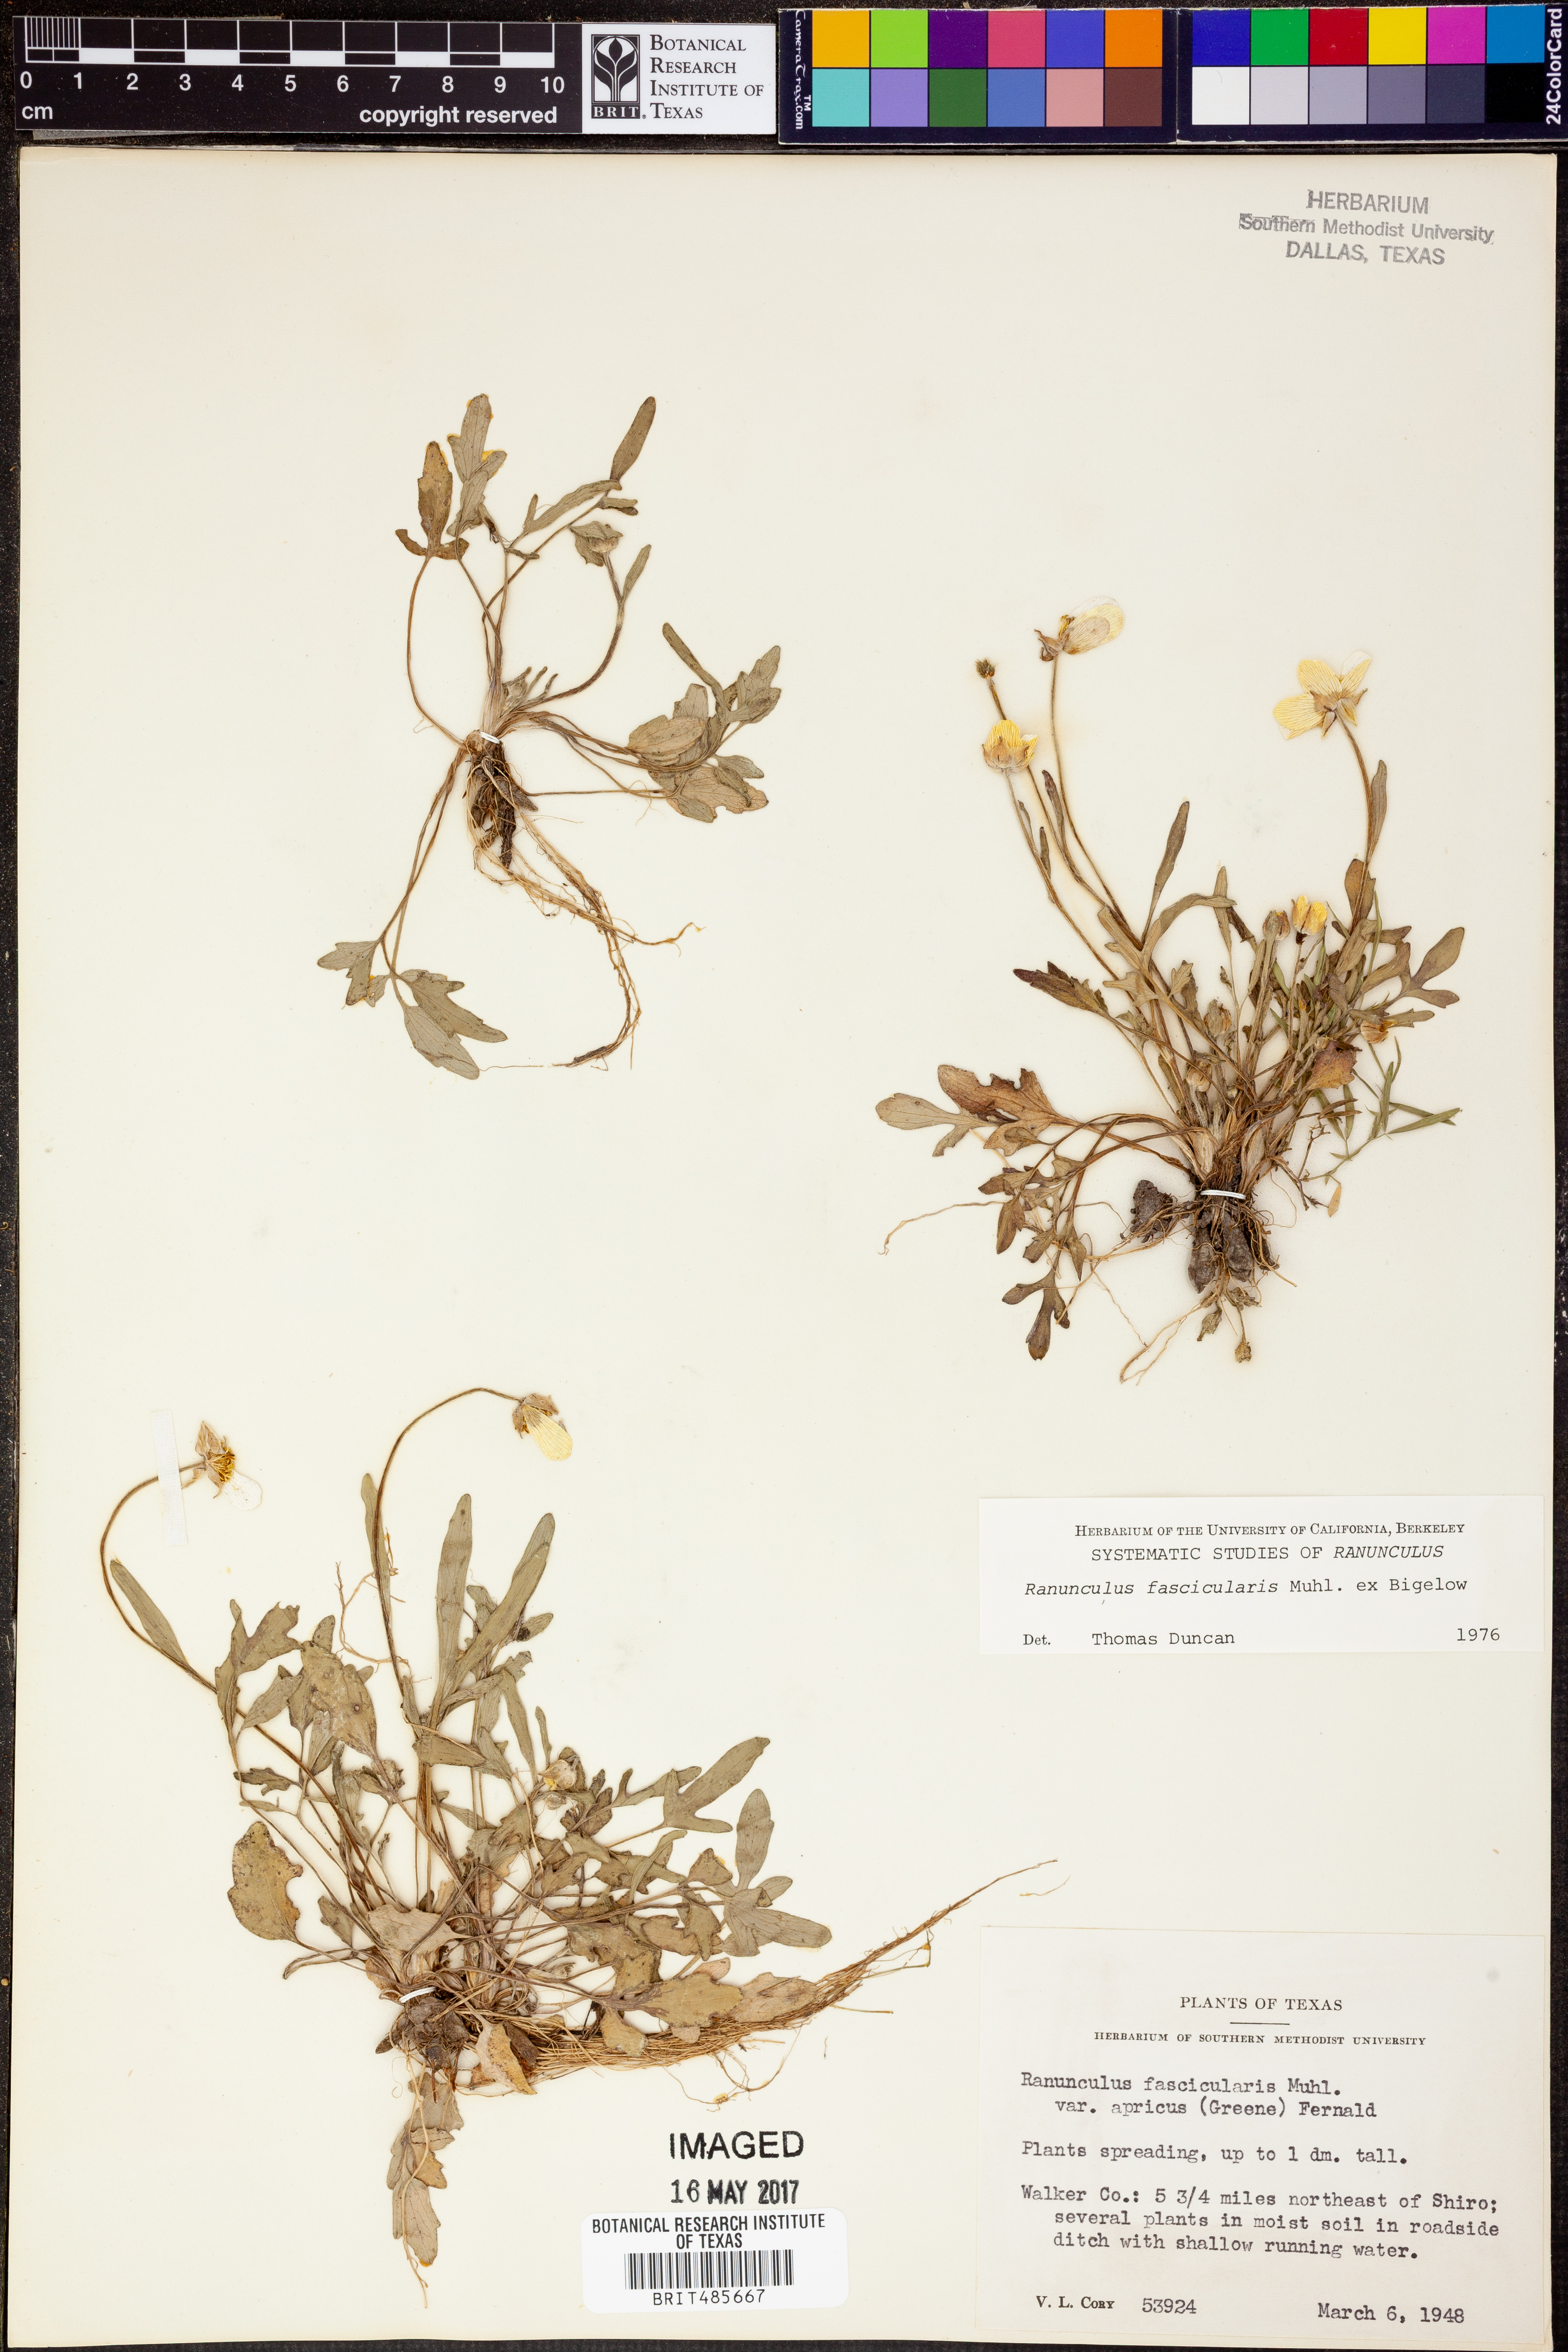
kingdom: Plantae
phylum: Tracheophyta
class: Magnoliopsida
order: Ranunculales
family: Ranunculaceae
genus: Ranunculus
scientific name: Ranunculus fascicularis
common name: Early buttercup
